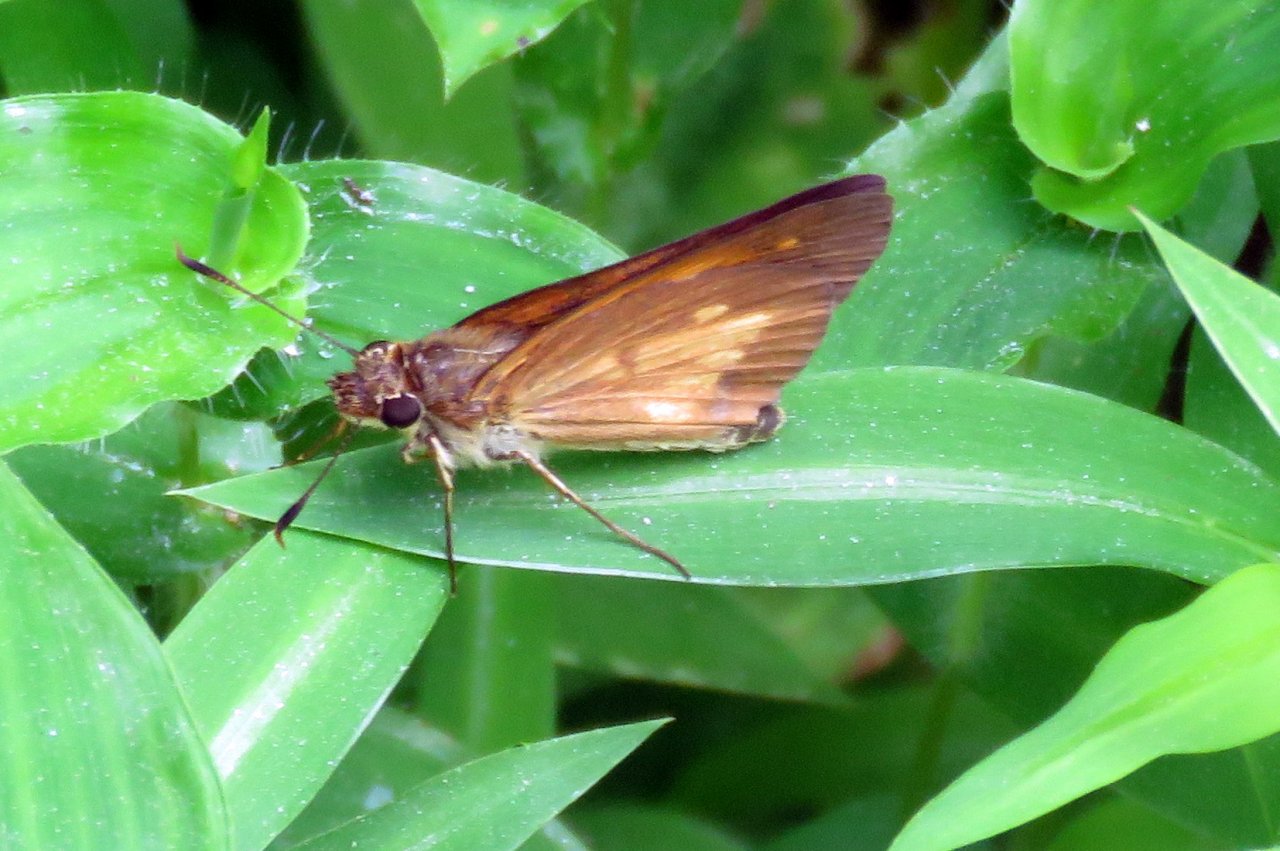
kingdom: Animalia
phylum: Arthropoda
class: Insecta
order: Lepidoptera
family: Hesperiidae
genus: Poanes
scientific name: Poanes viator
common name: Broad-winged Skipper
